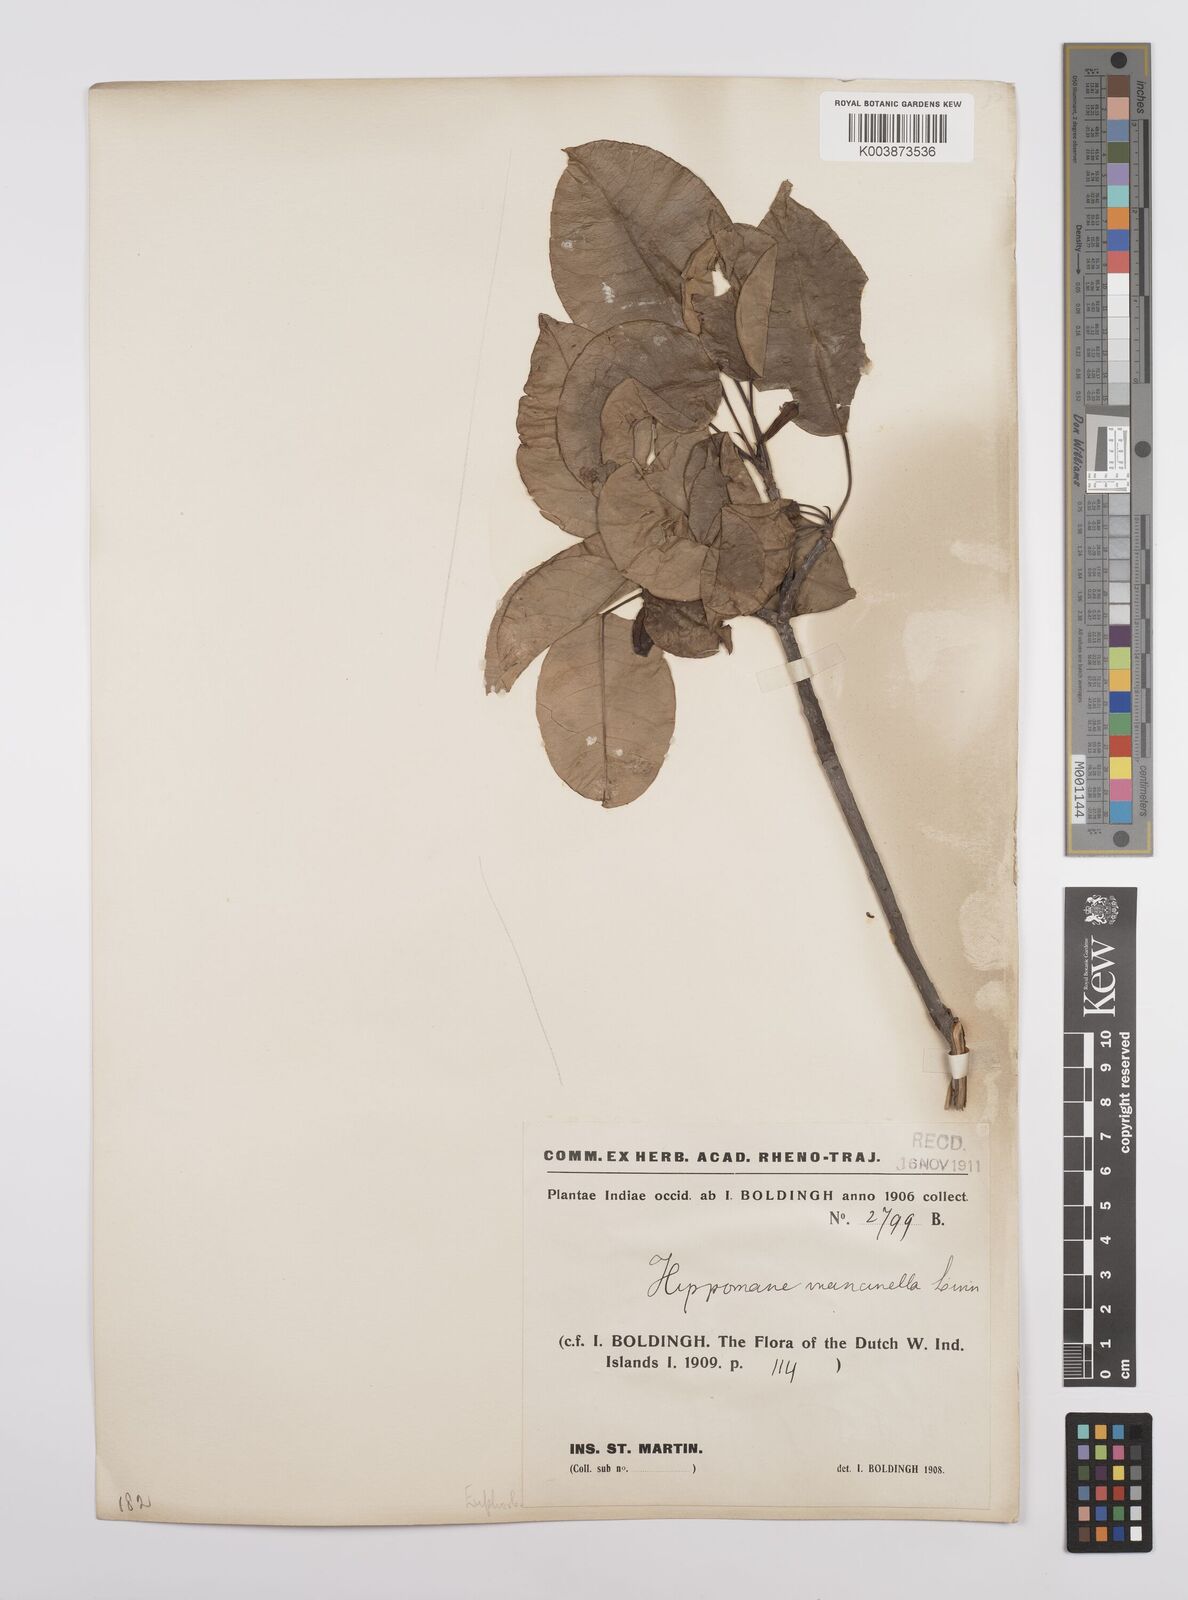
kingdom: Plantae
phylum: Tracheophyta
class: Magnoliopsida
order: Malpighiales
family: Euphorbiaceae
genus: Hippomane
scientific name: Hippomane mancinella
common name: Manchineel
